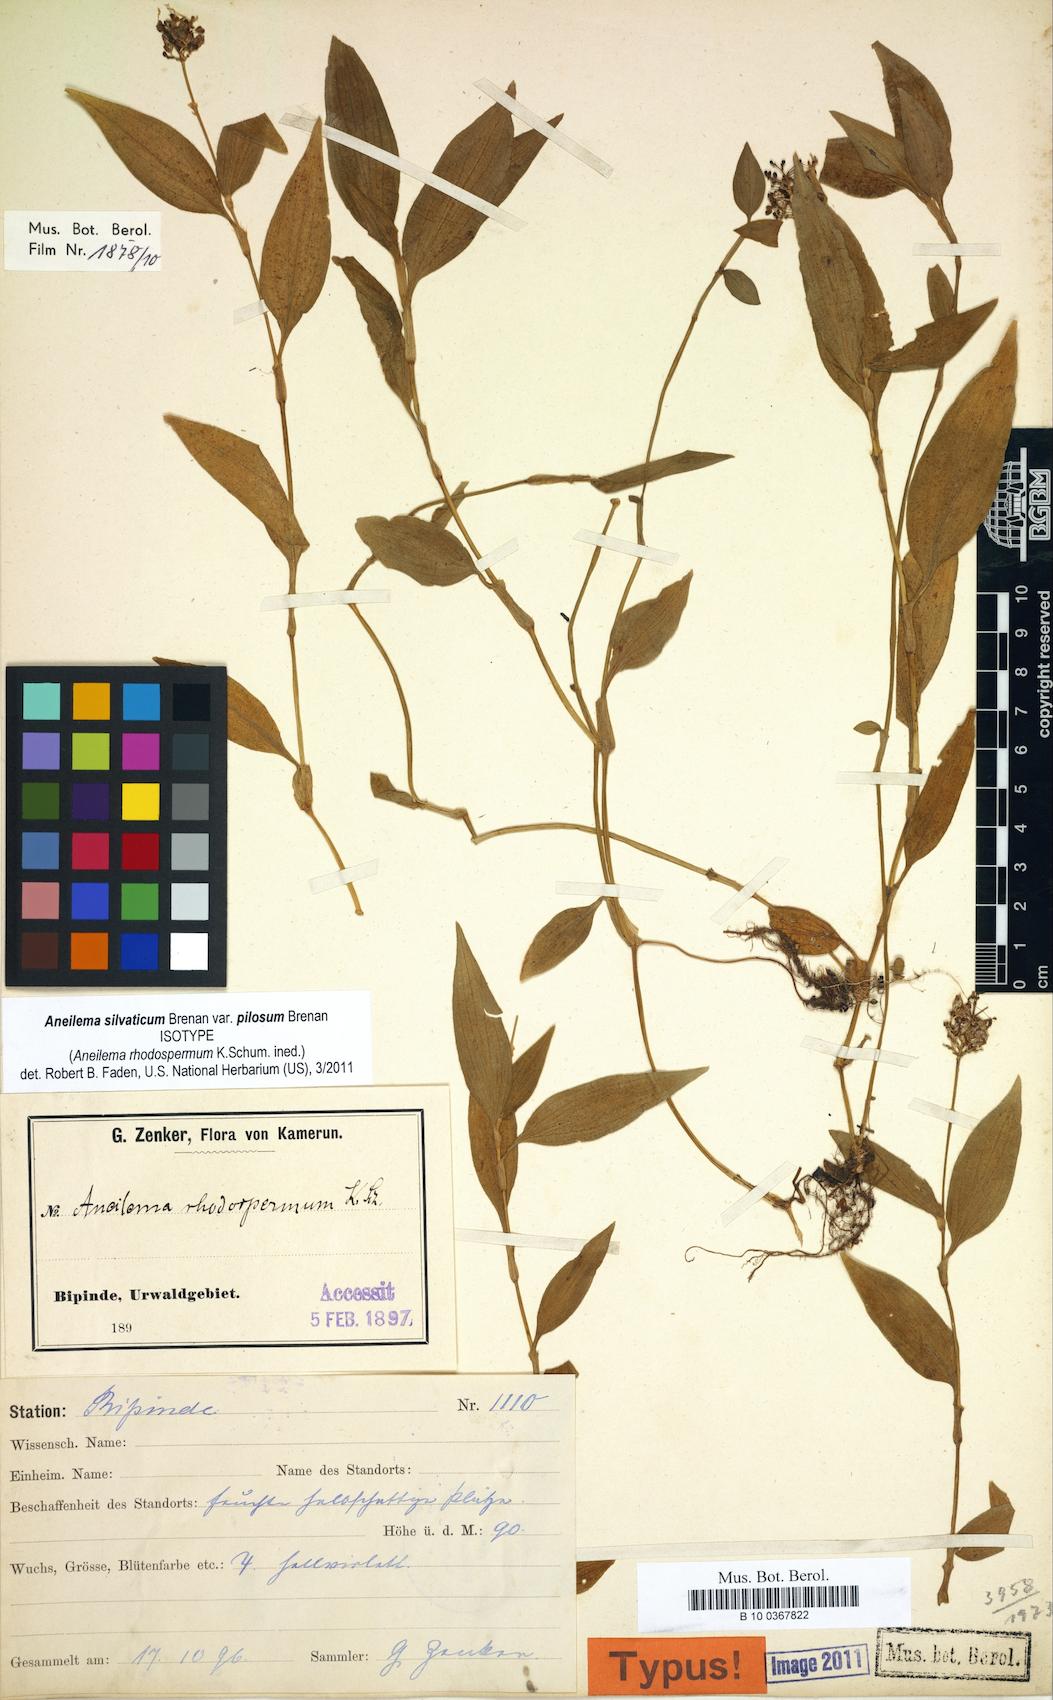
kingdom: Plantae
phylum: Tracheophyta
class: Liliopsida
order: Commelinales
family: Commelinaceae
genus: Aneilema
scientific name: Aneilema silvaticum
